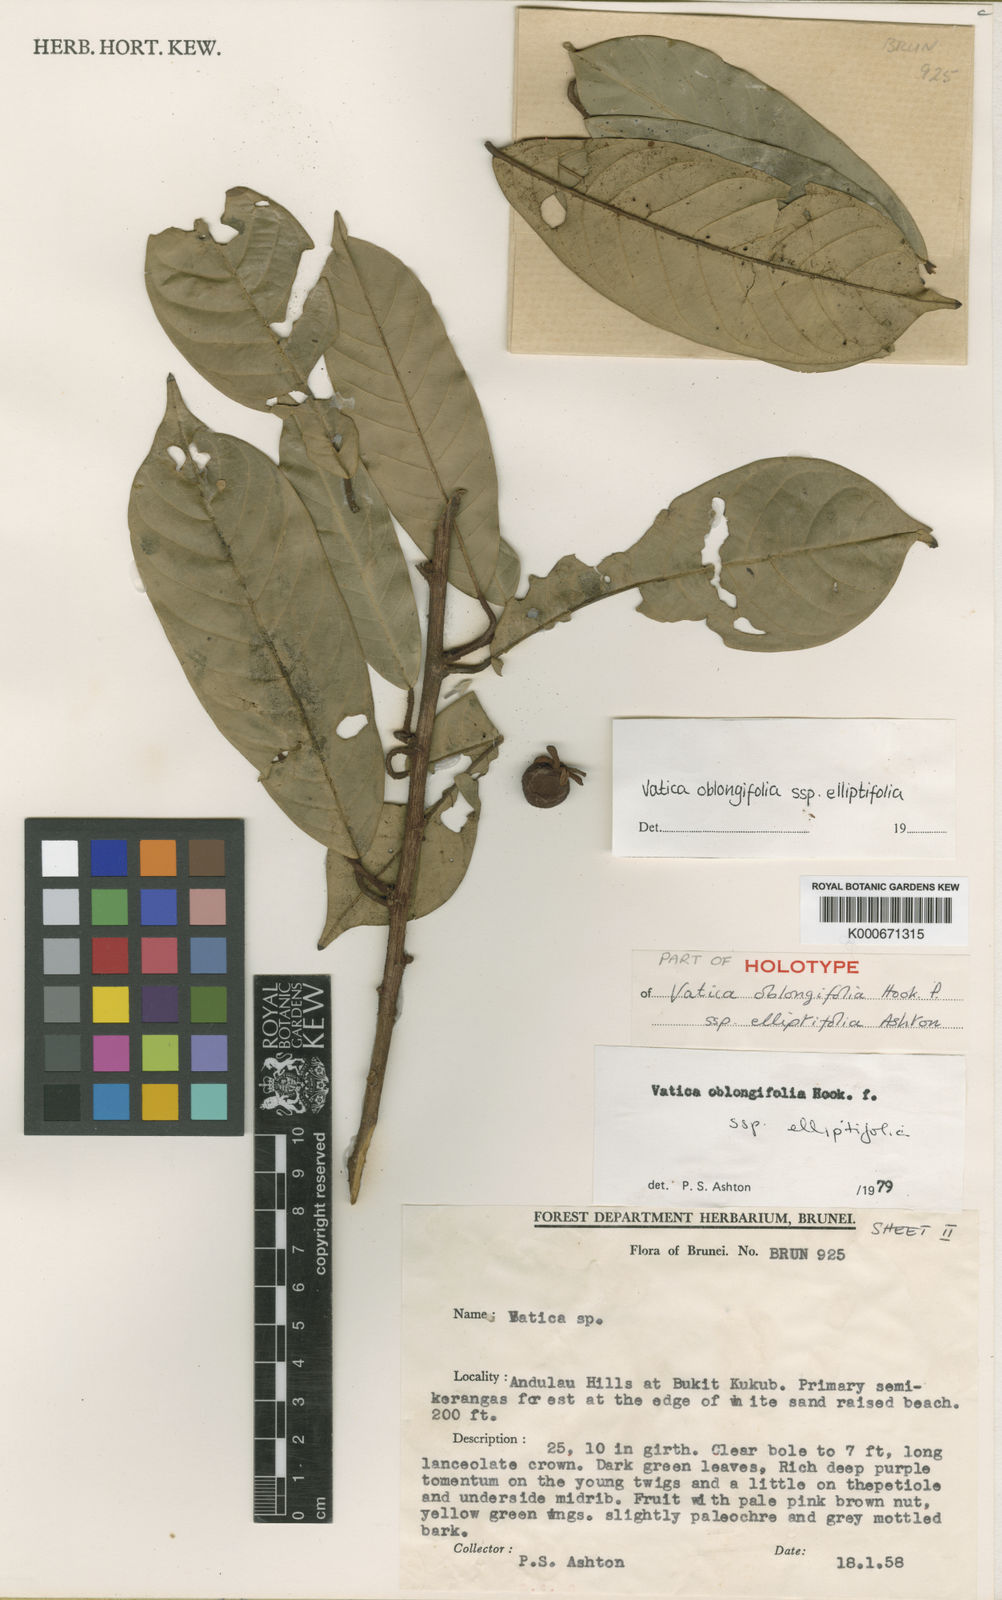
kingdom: Plantae
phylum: Tracheophyta
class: Magnoliopsida
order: Malvales
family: Dipterocarpaceae
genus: Vatica
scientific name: Vatica oblongifolia
